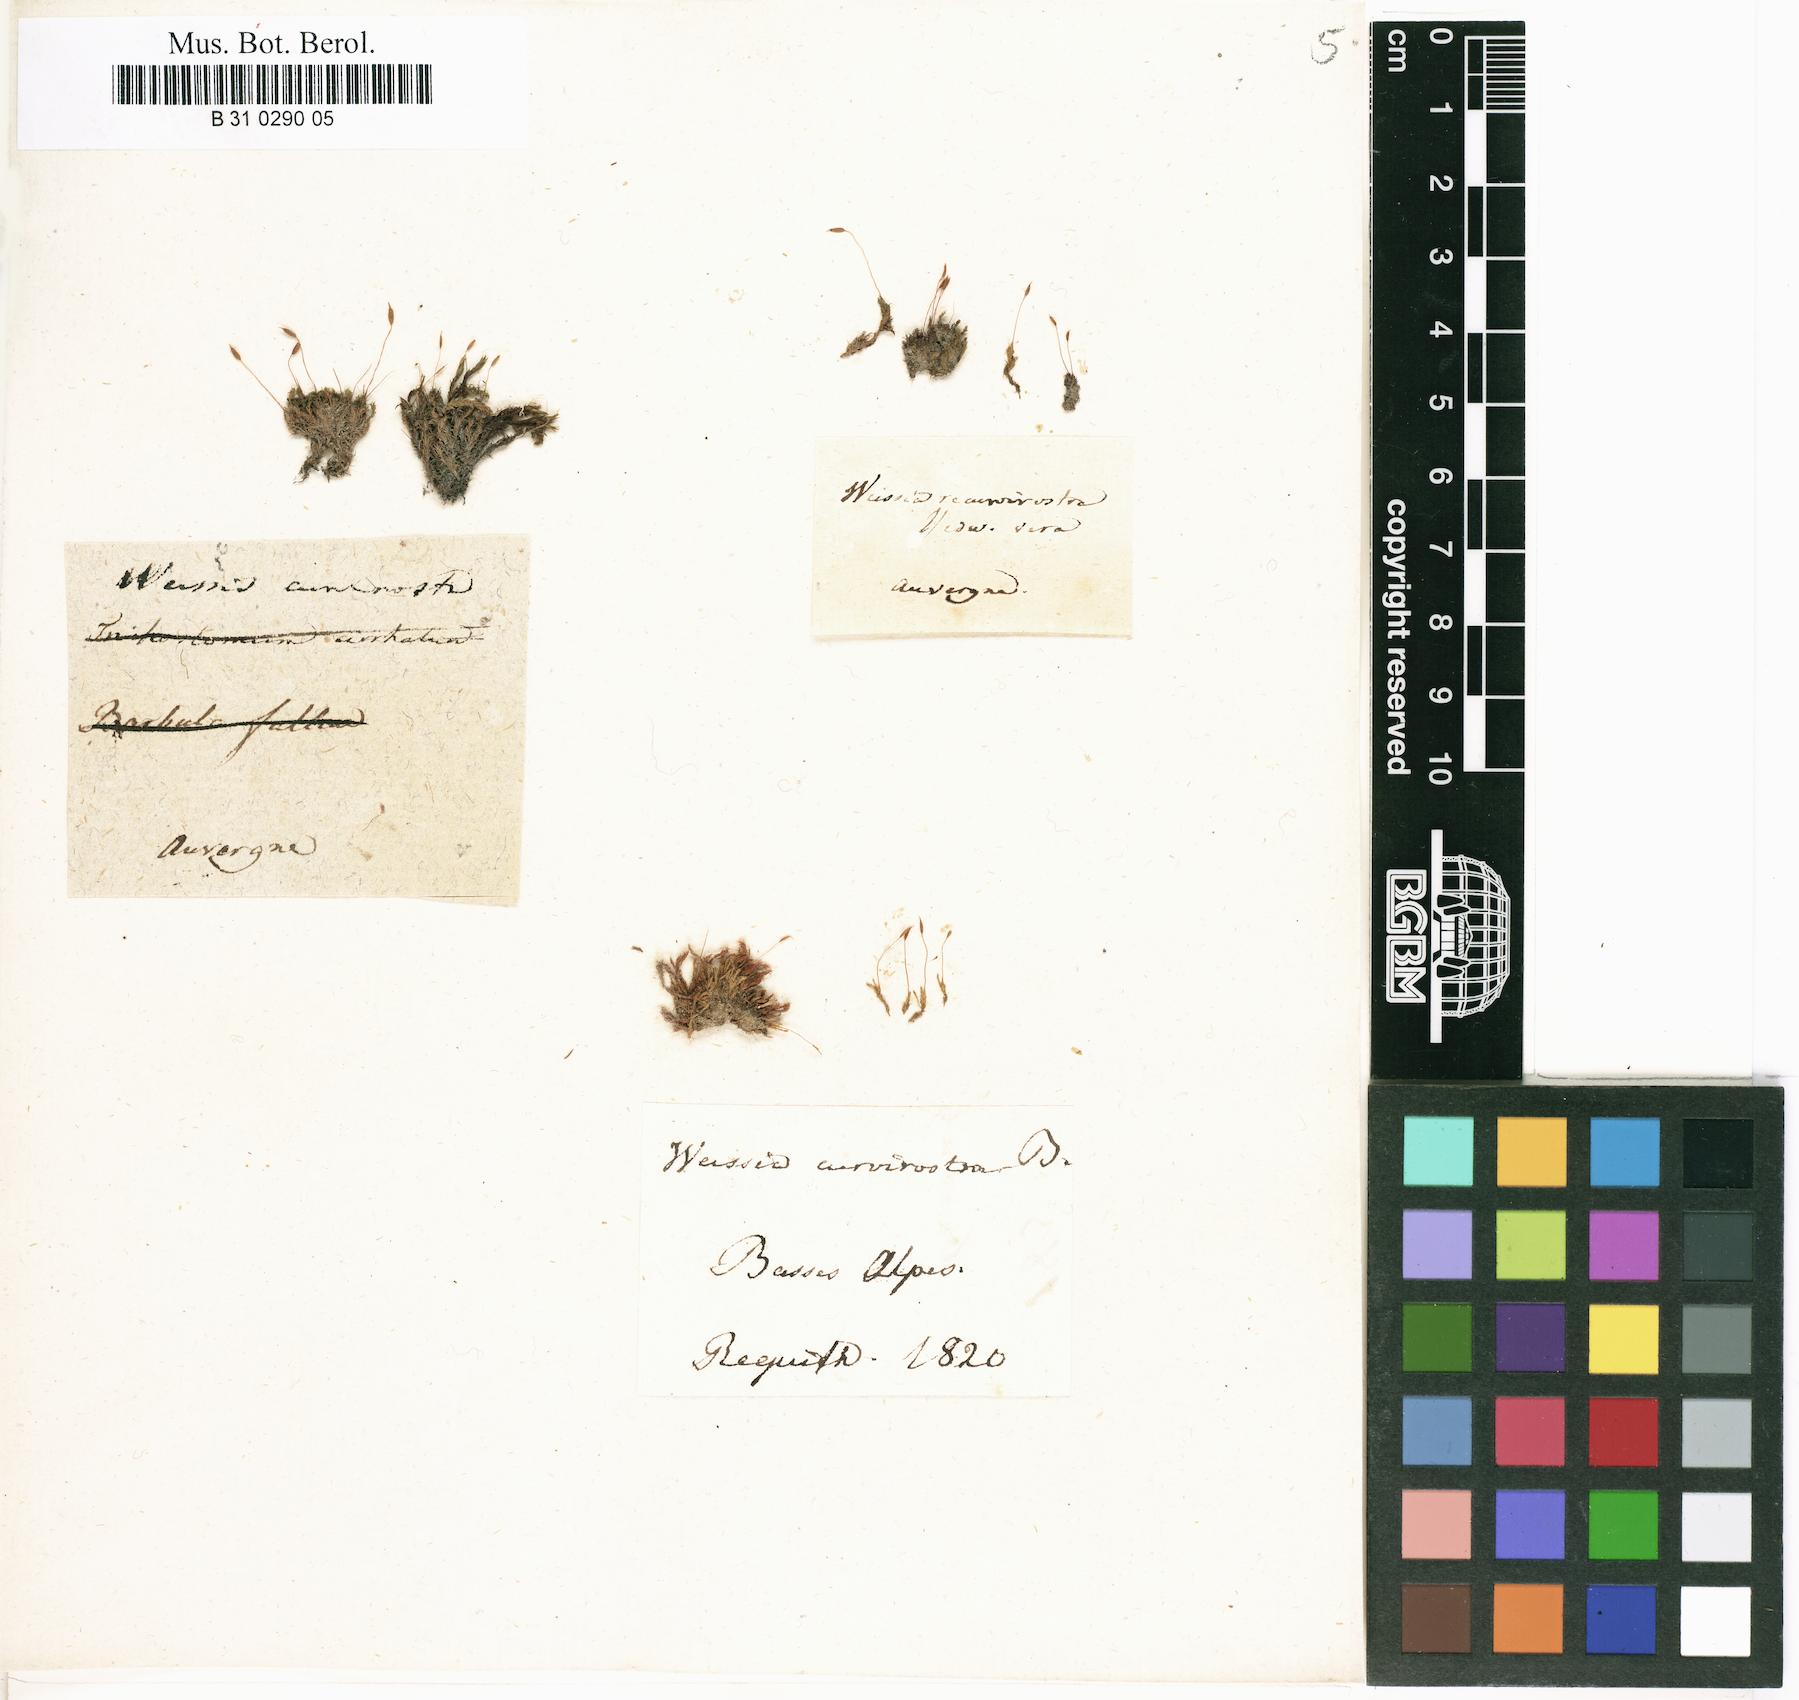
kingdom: Plantae
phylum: Bryophyta
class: Bryopsida
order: Pottiales
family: Pottiaceae
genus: Bryoerythrophyllum
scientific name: Bryoerythrophyllum recurvirostrum
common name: Red beard moss
